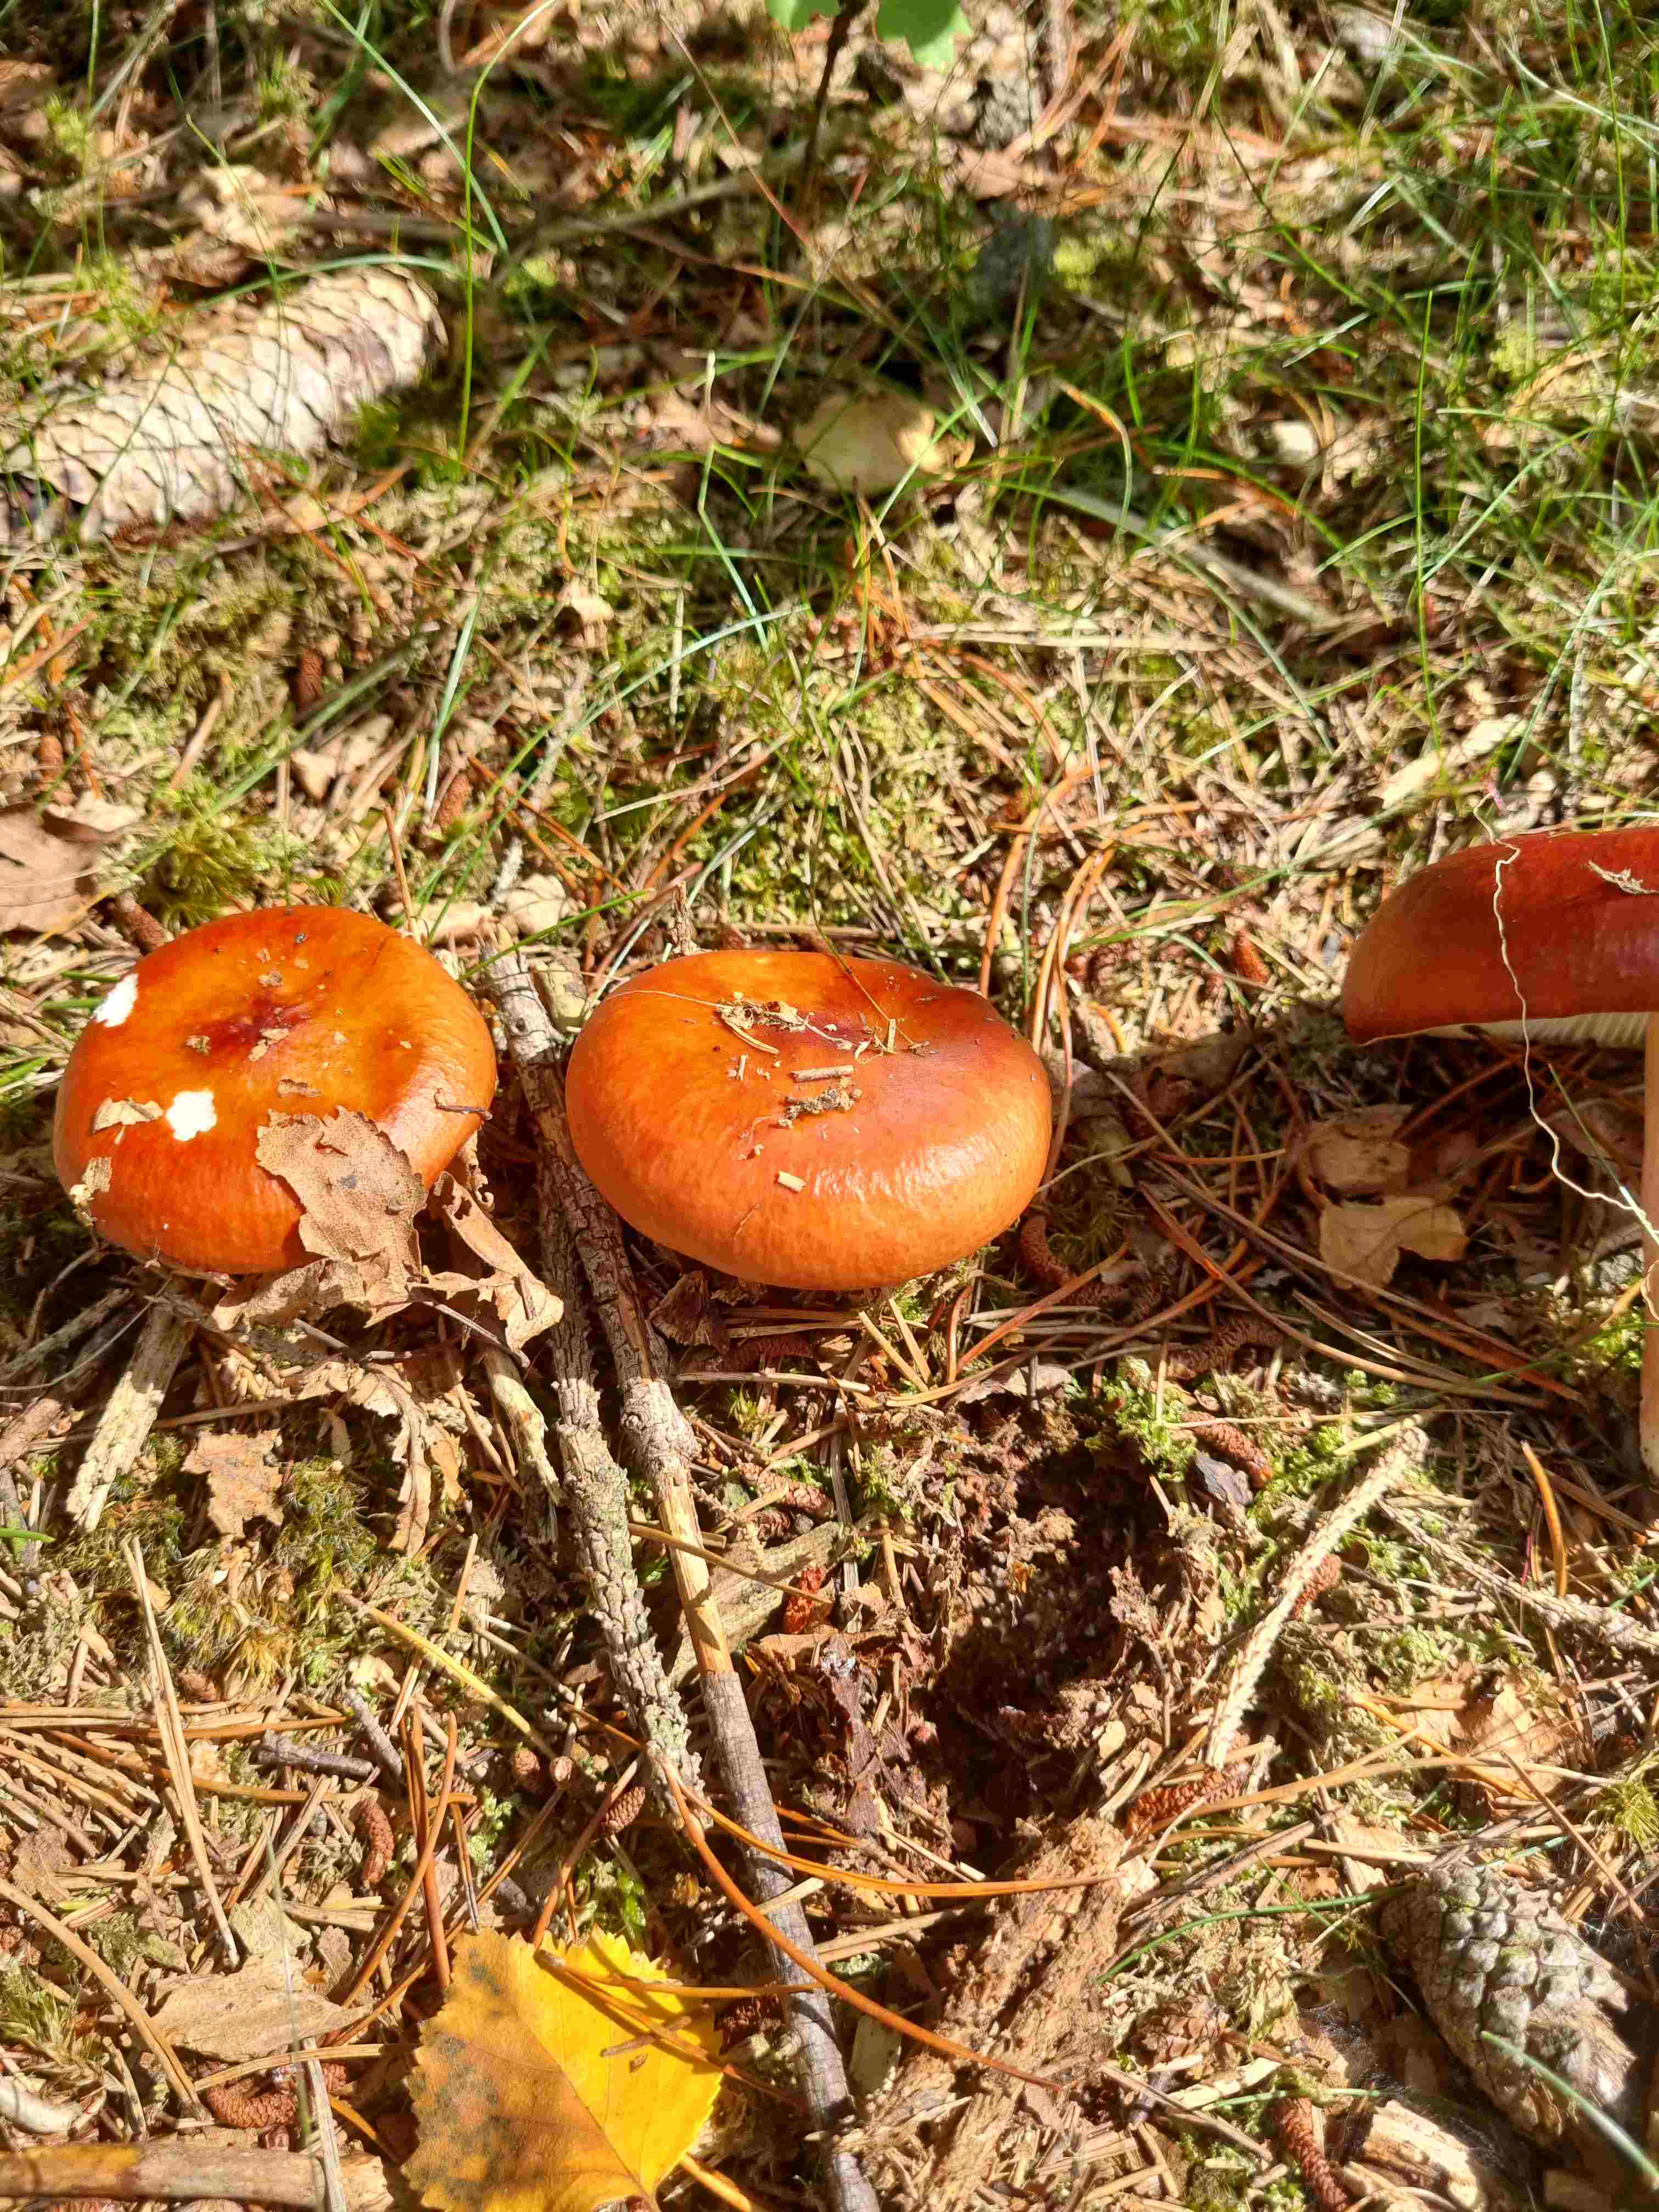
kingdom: Fungi
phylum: Basidiomycota
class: Agaricomycetes
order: Russulales
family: Russulaceae
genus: Russula
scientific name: Russula paludosa
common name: prægtig skørhat
